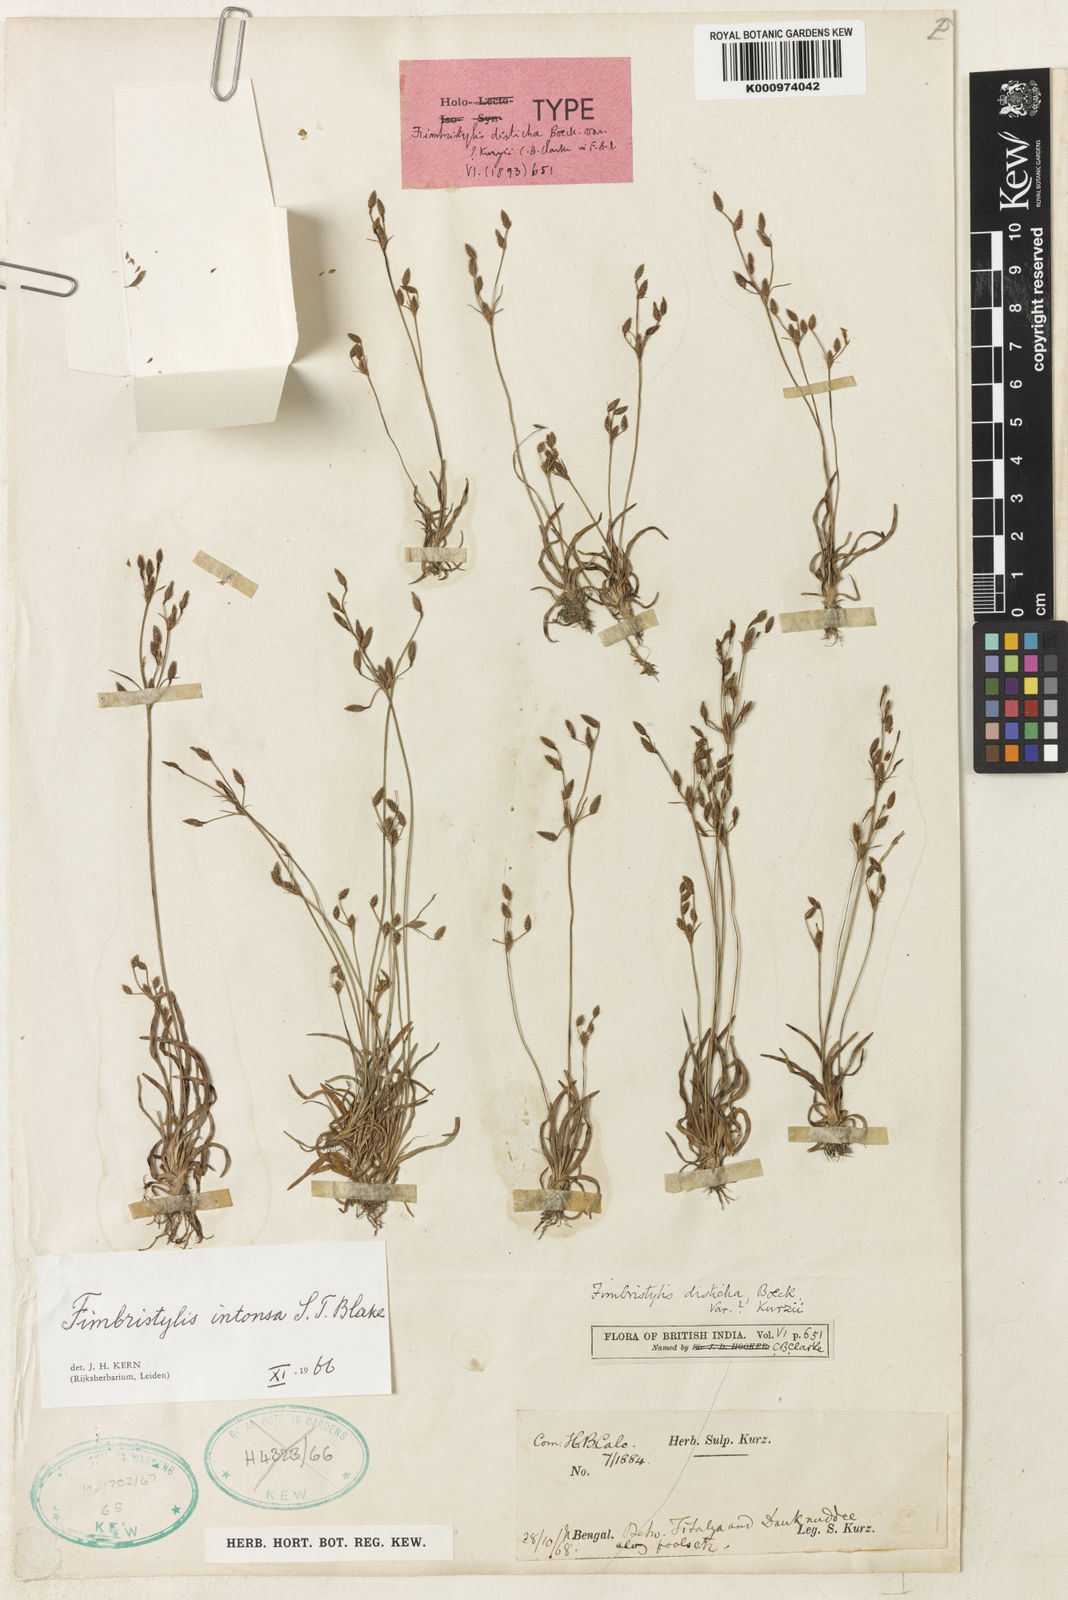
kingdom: Plantae
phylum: Tracheophyta
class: Liliopsida
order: Poales
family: Cyperaceae
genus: Fimbristylis
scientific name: Fimbristylis intonsa
